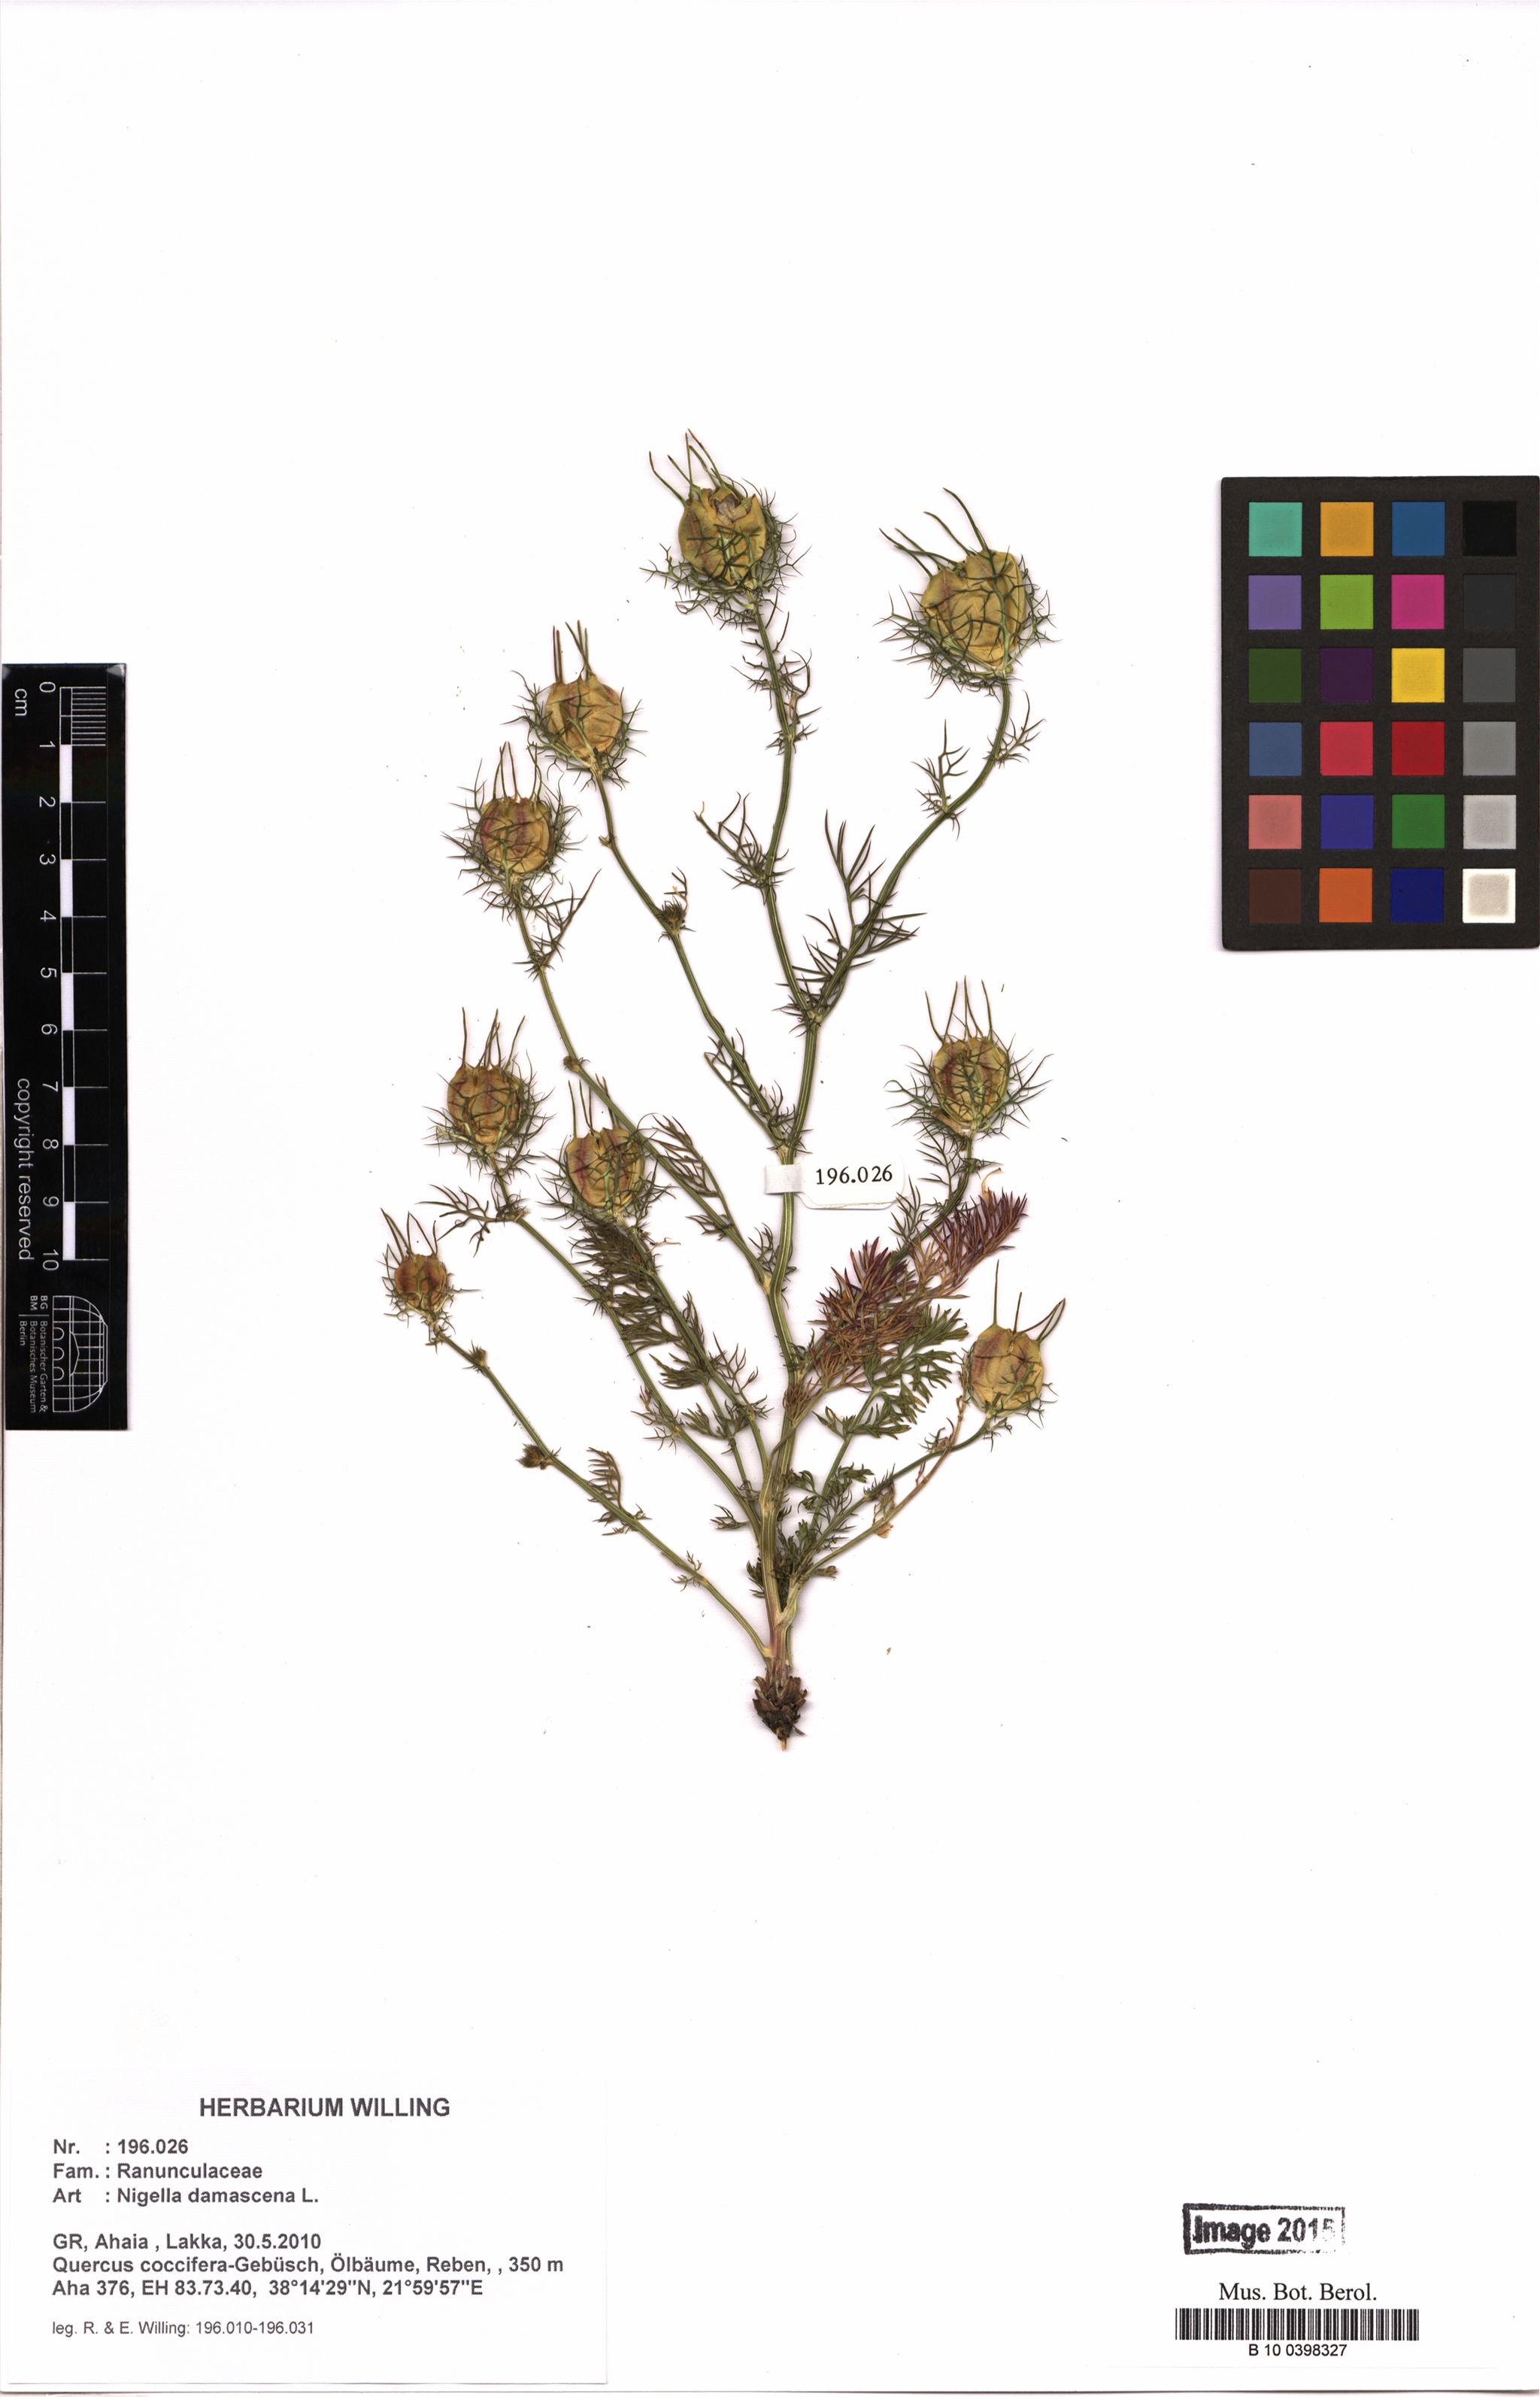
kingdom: Plantae
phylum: Tracheophyta
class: Magnoliopsida
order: Ranunculales
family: Ranunculaceae
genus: Nigella
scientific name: Nigella damascena
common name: Love-in-a-mist
